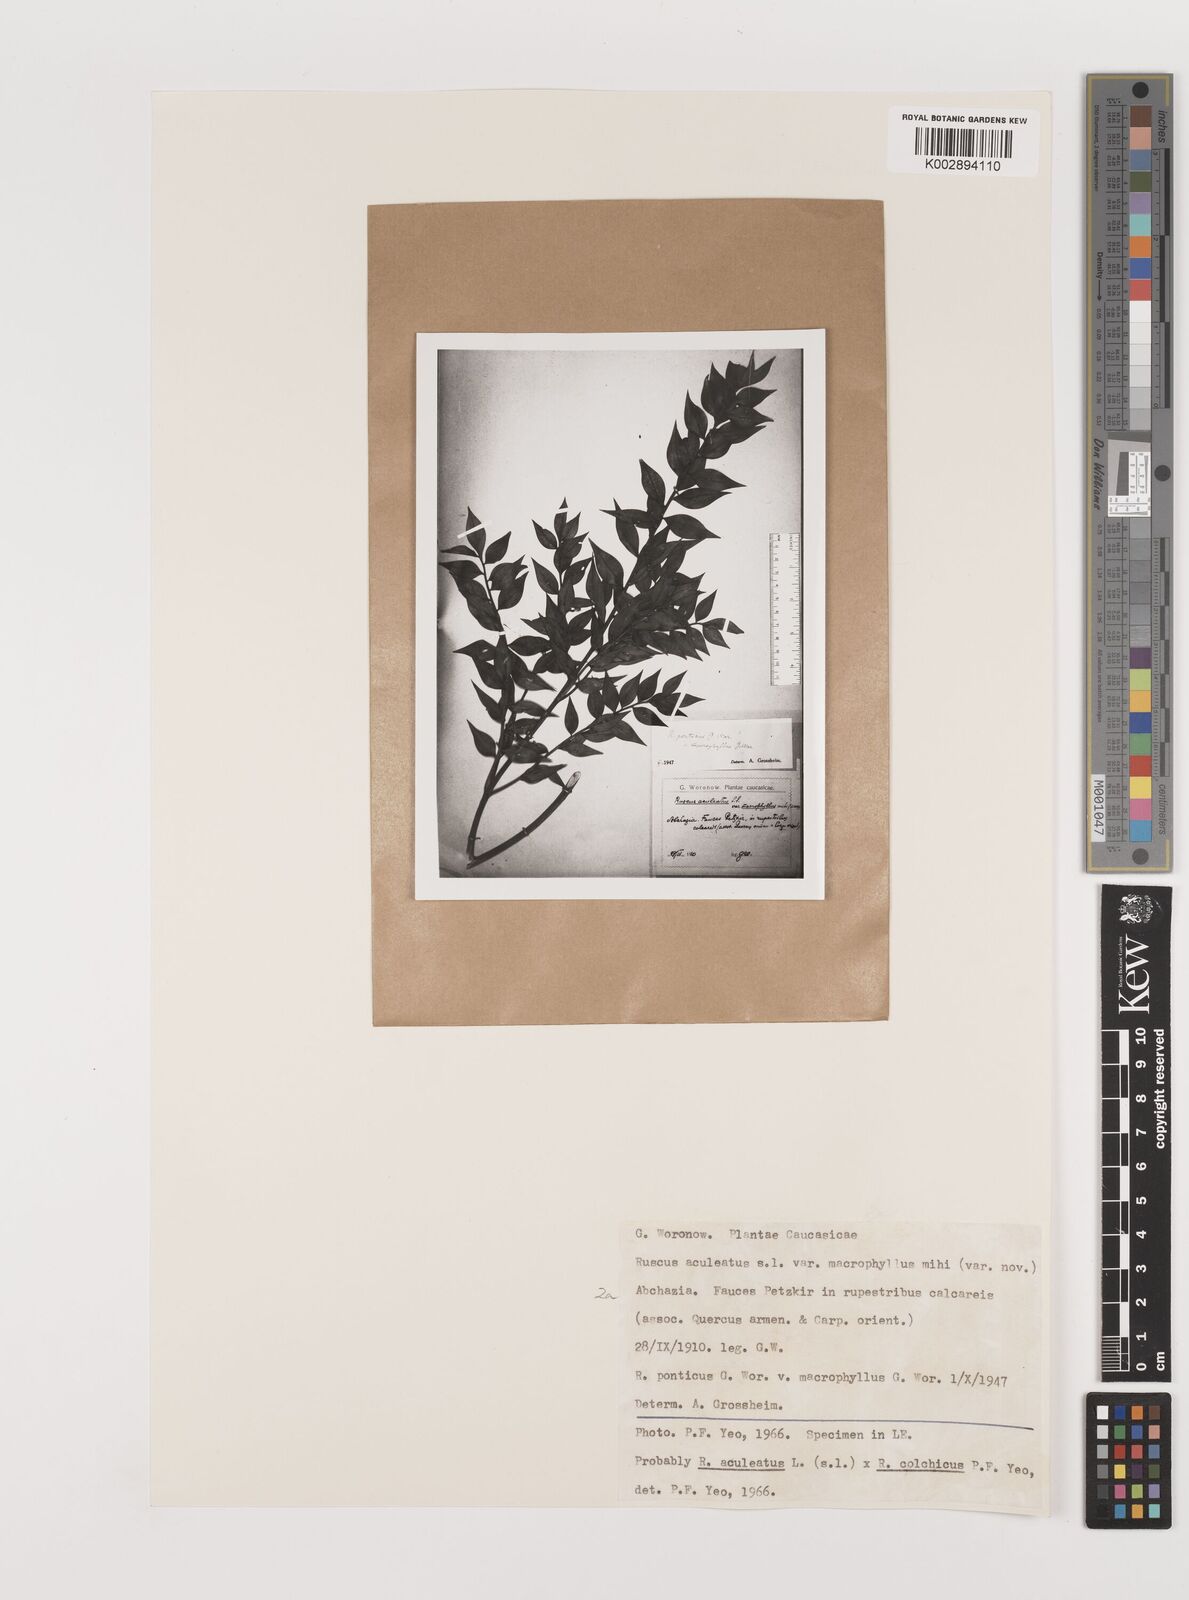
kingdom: Plantae
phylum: Tracheophyta
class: Liliopsida
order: Asparagales
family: Asparagaceae
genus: Ruscus
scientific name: Ruscus aculeatus
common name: Butcher's-broom
